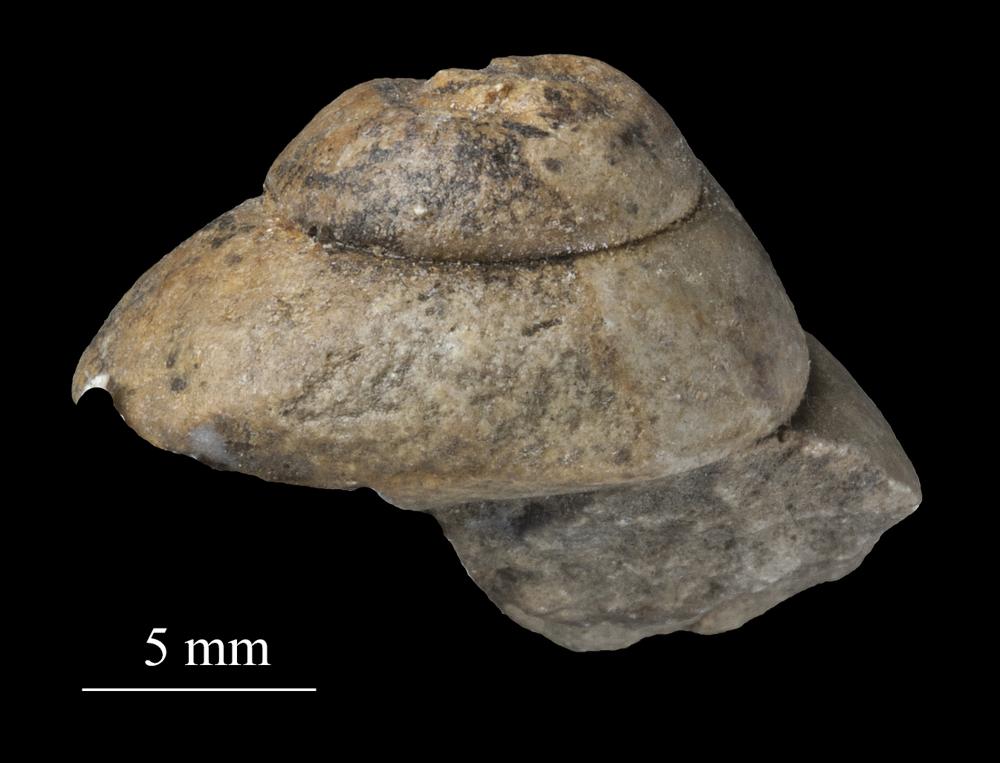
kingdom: Animalia
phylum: Mollusca
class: Gastropoda
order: Trochida
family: Trochidae
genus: Trochus
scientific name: Trochus ellipticus
